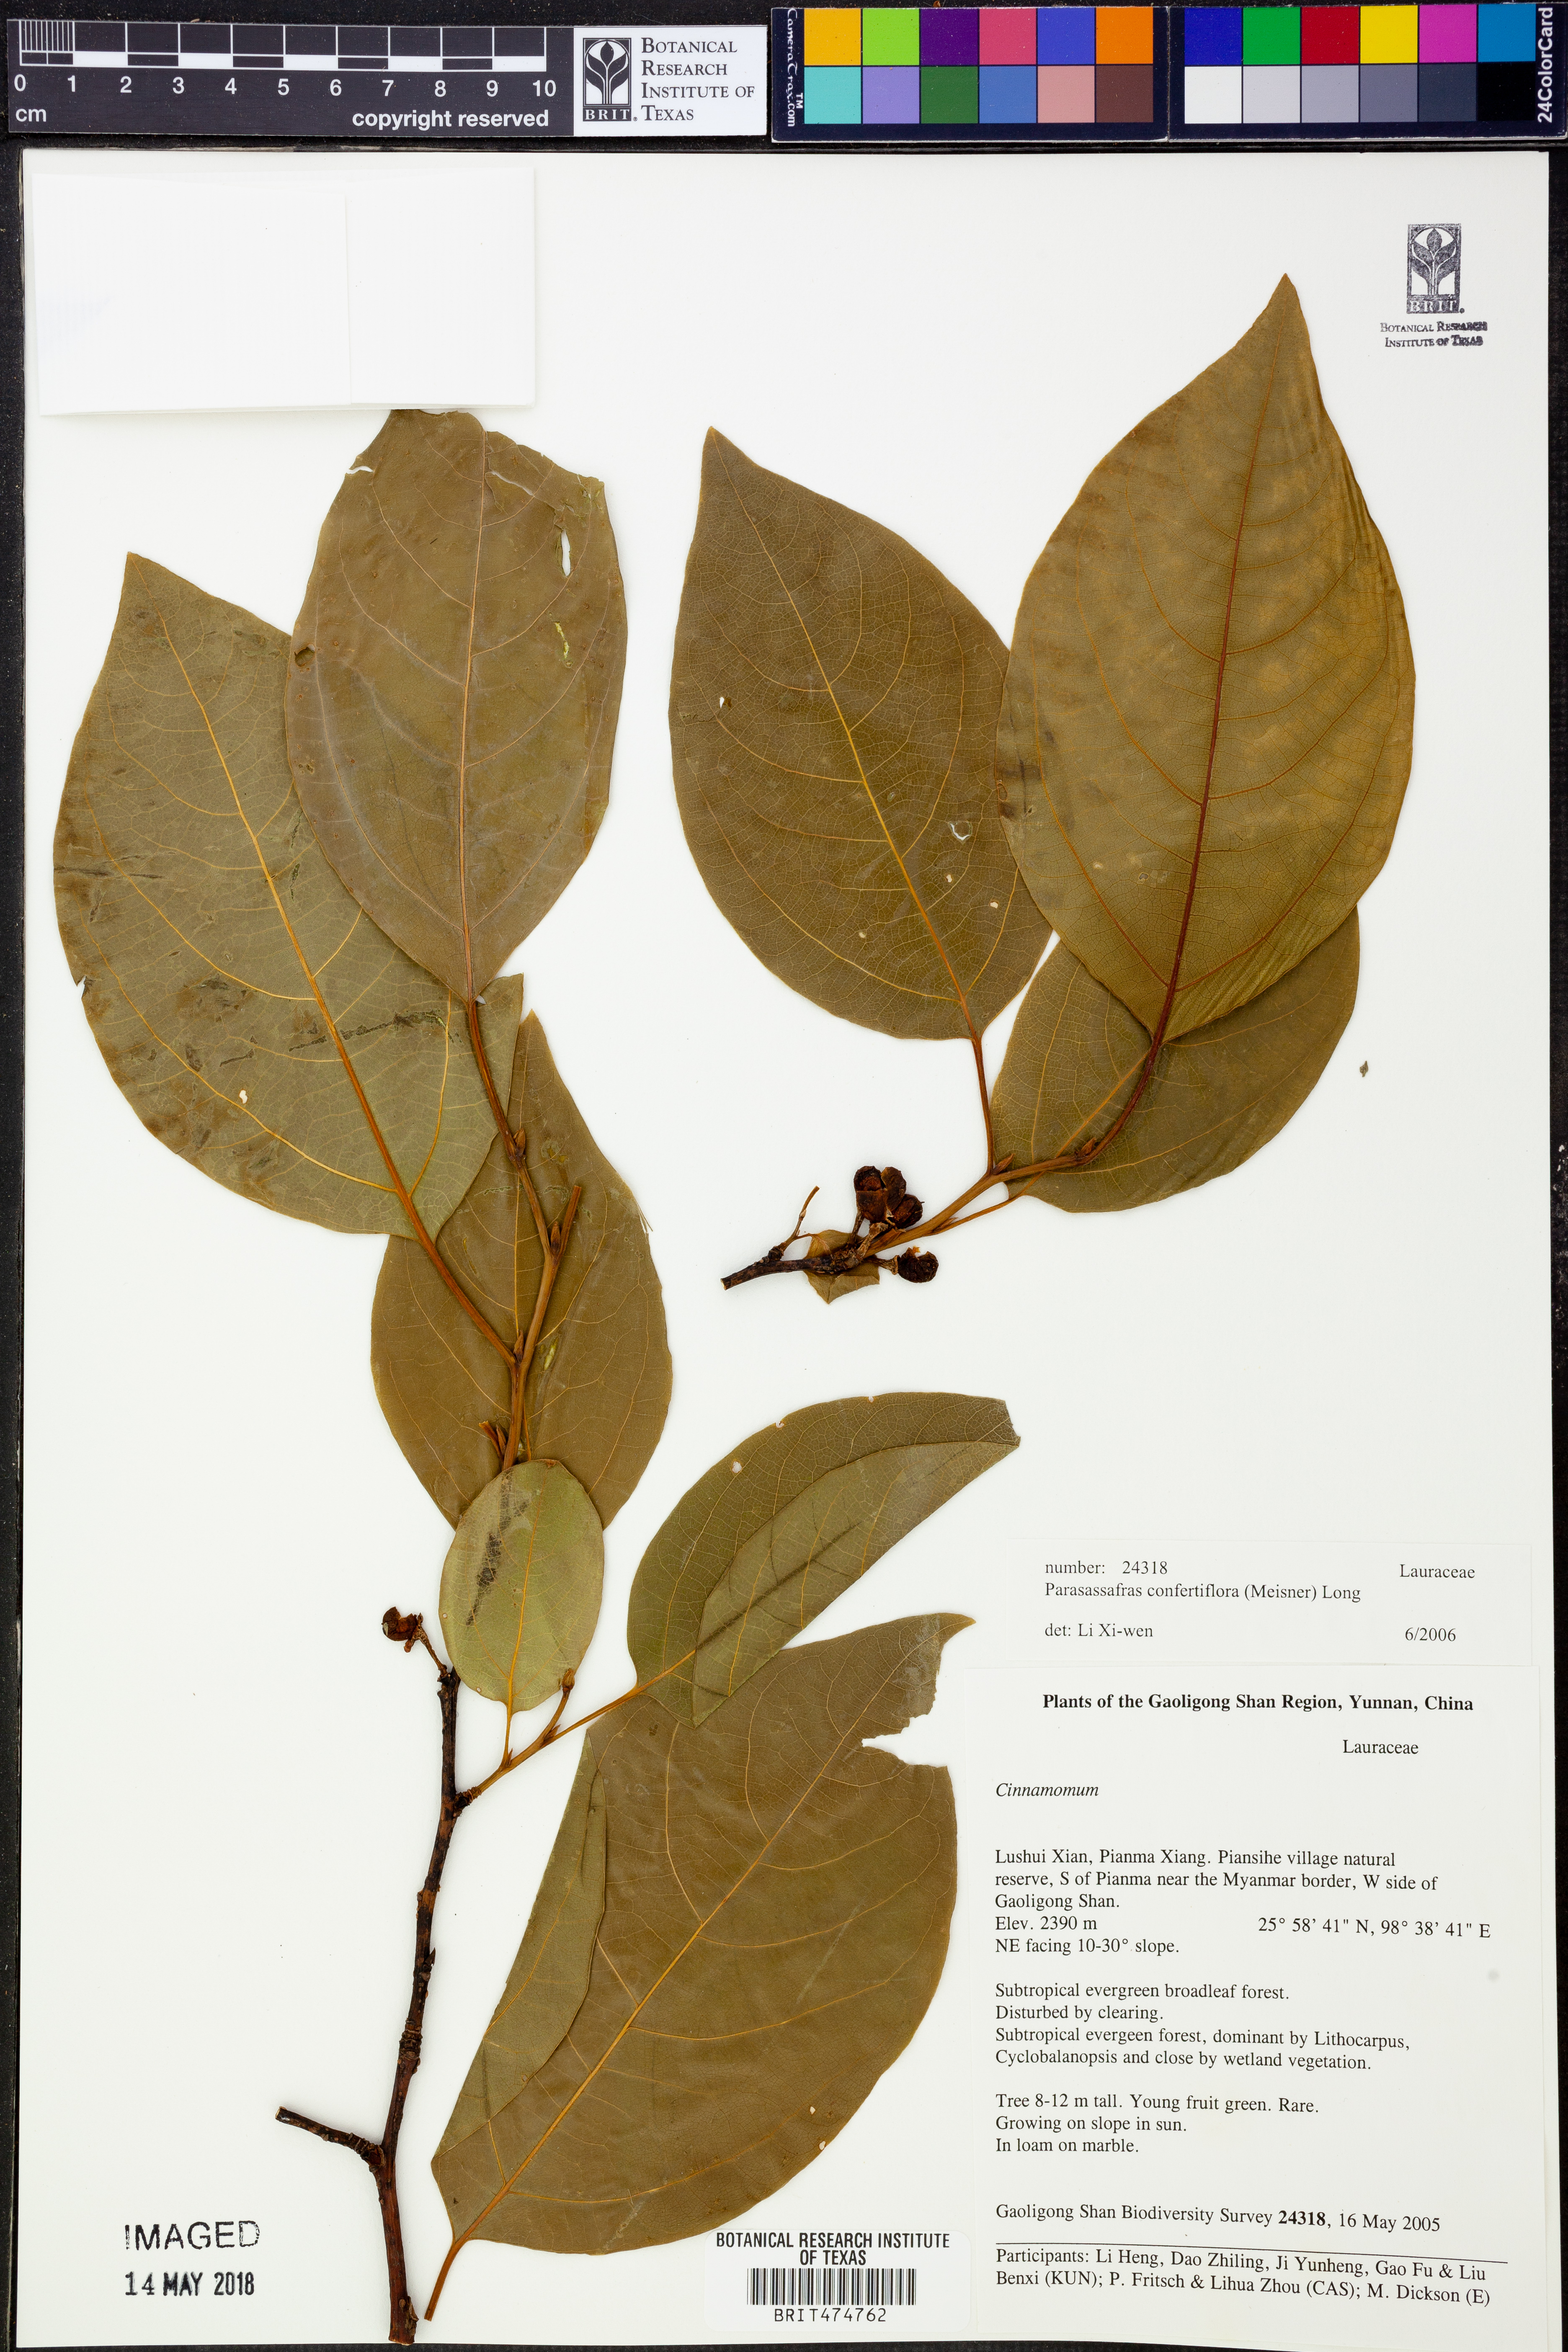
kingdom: Plantae
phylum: Tracheophyta
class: Magnoliopsida
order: Laurales
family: Lauraceae
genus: Parasassafras
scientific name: Parasassafras confertiflora
